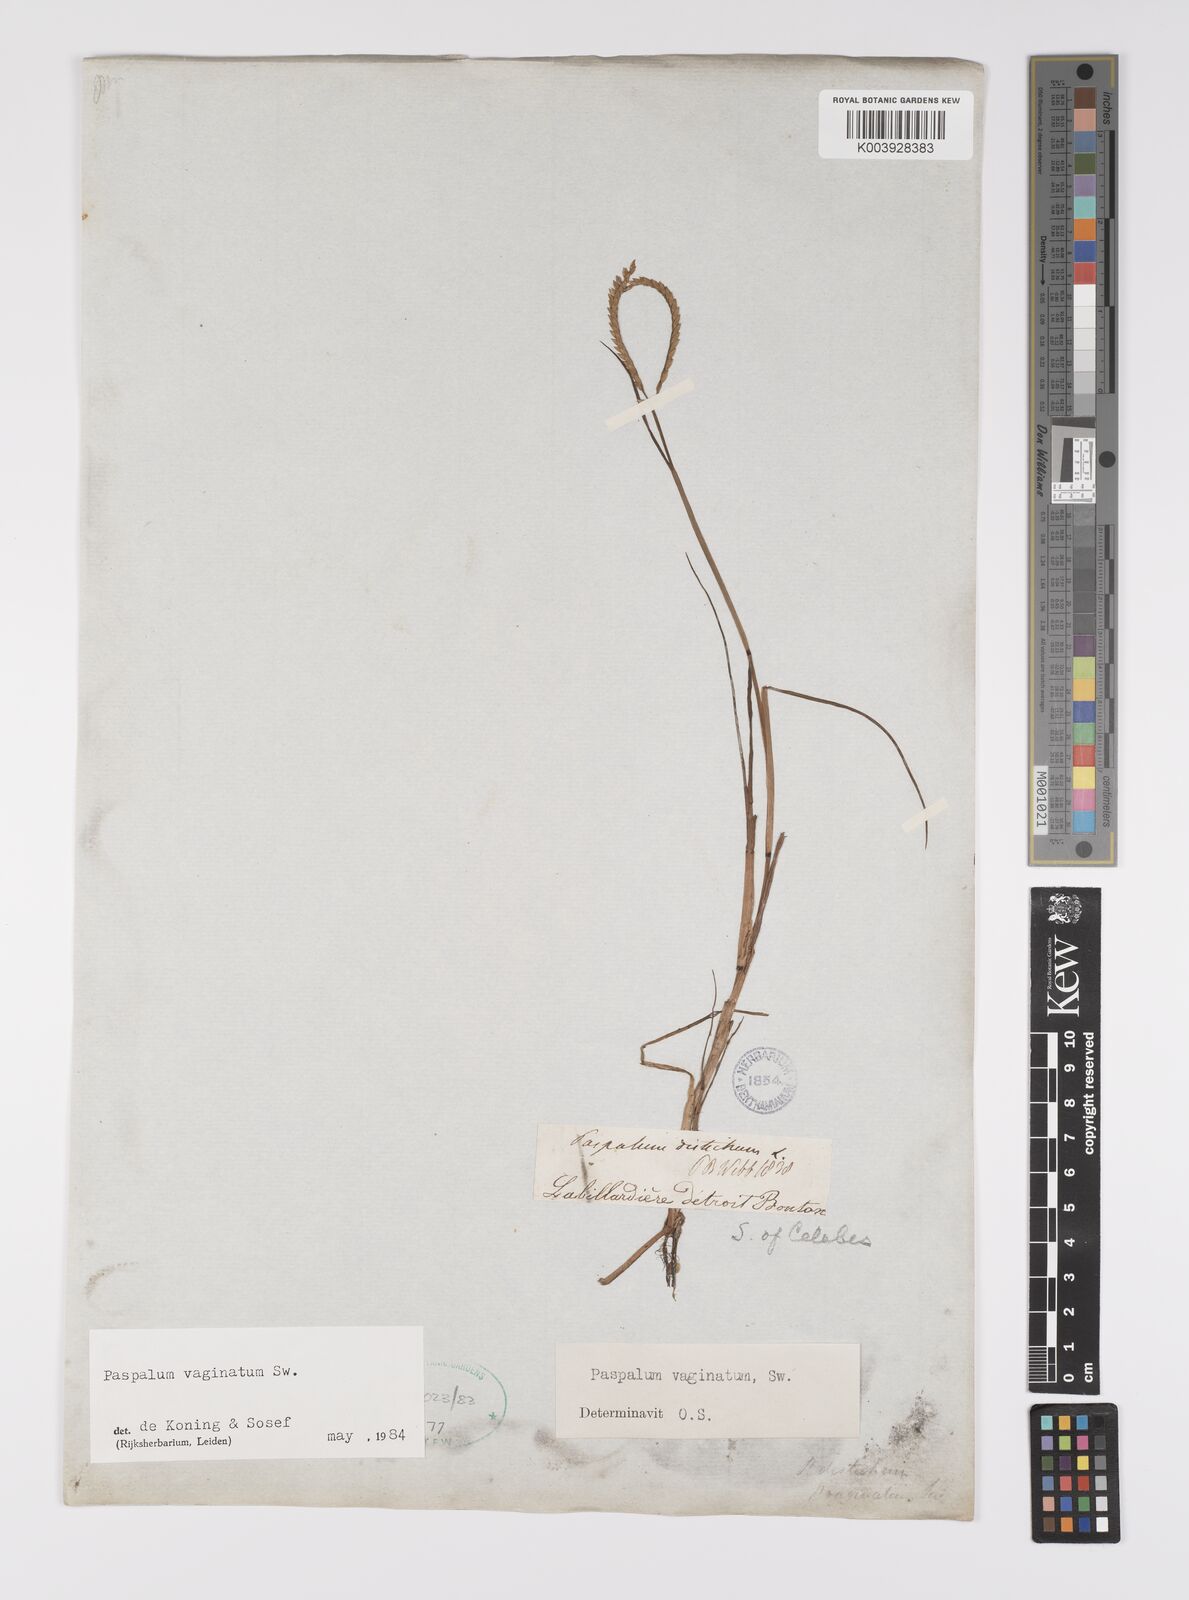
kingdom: Plantae
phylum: Tracheophyta
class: Liliopsida
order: Poales
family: Poaceae
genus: Paspalum
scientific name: Paspalum vaginatum
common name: Seashore paspalum
